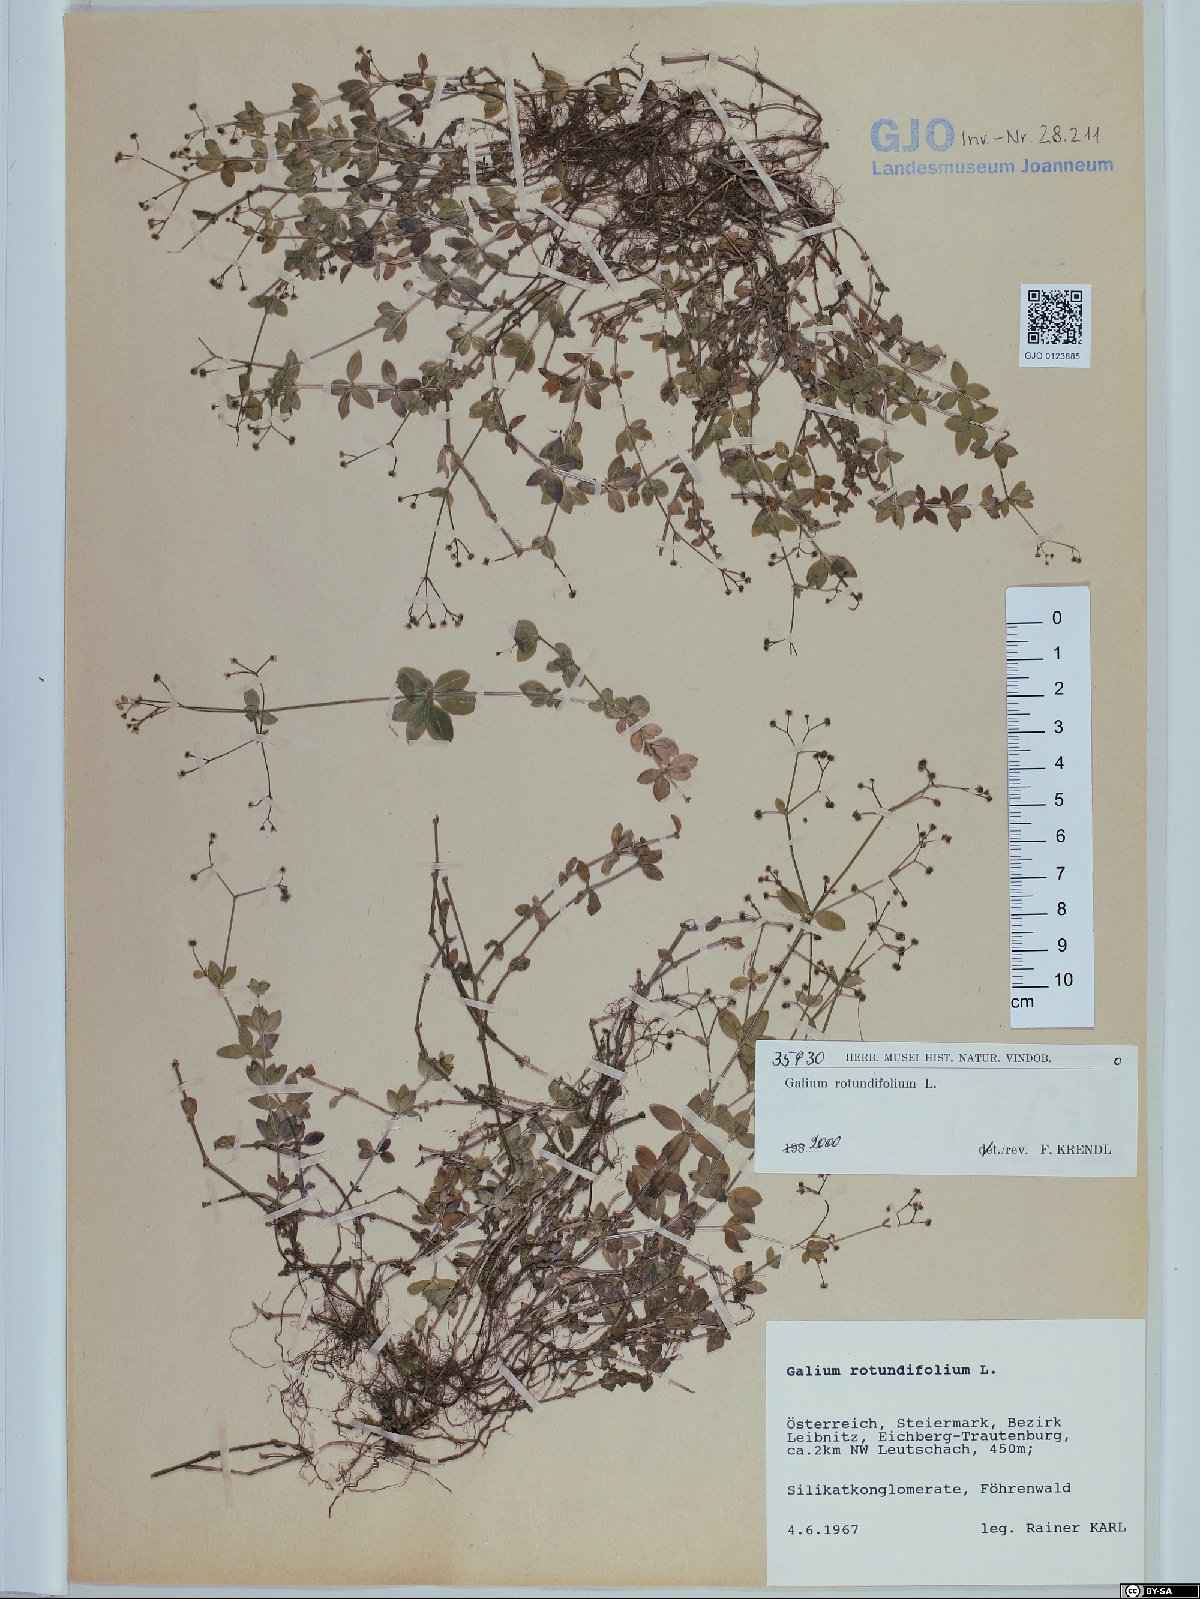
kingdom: Plantae
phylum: Tracheophyta
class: Magnoliopsida
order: Gentianales
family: Rubiaceae
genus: Galium
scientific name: Galium rotundifolium
